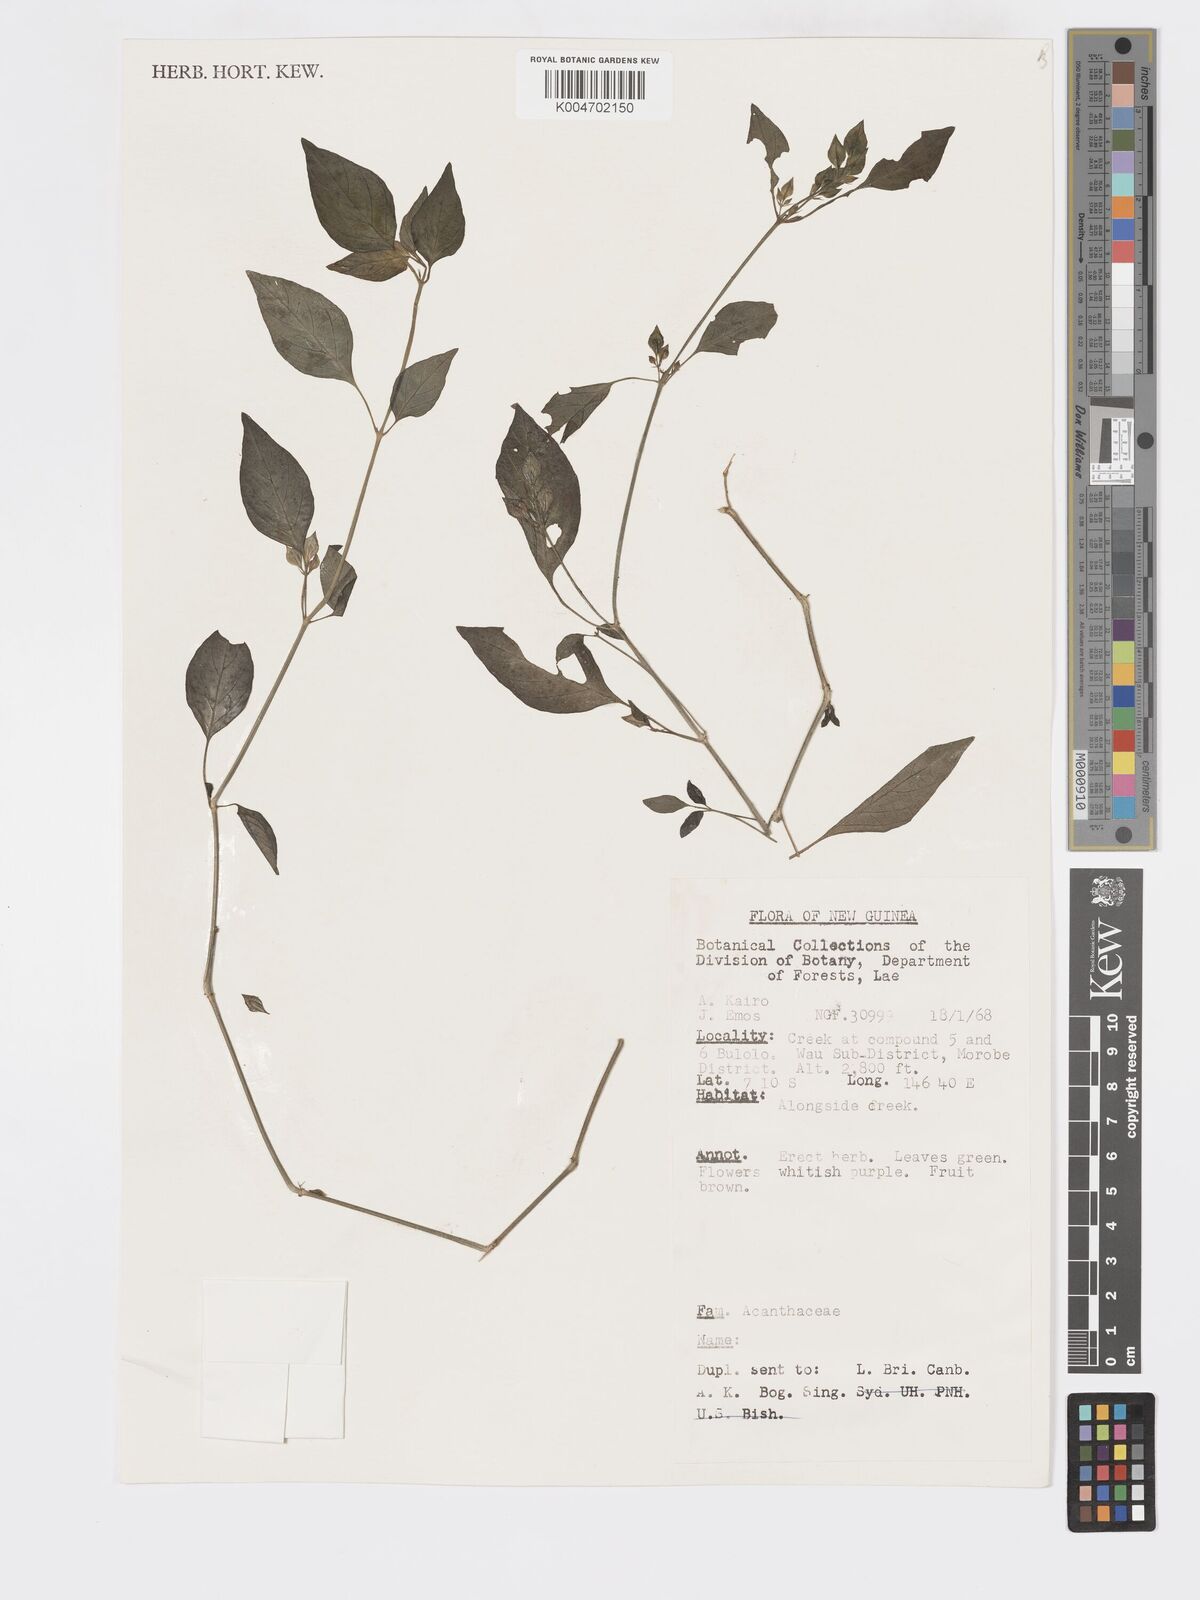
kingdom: Plantae
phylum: Tracheophyta
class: Magnoliopsida
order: Lamiales
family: Acanthaceae
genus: Dicliptera
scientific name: Dicliptera
